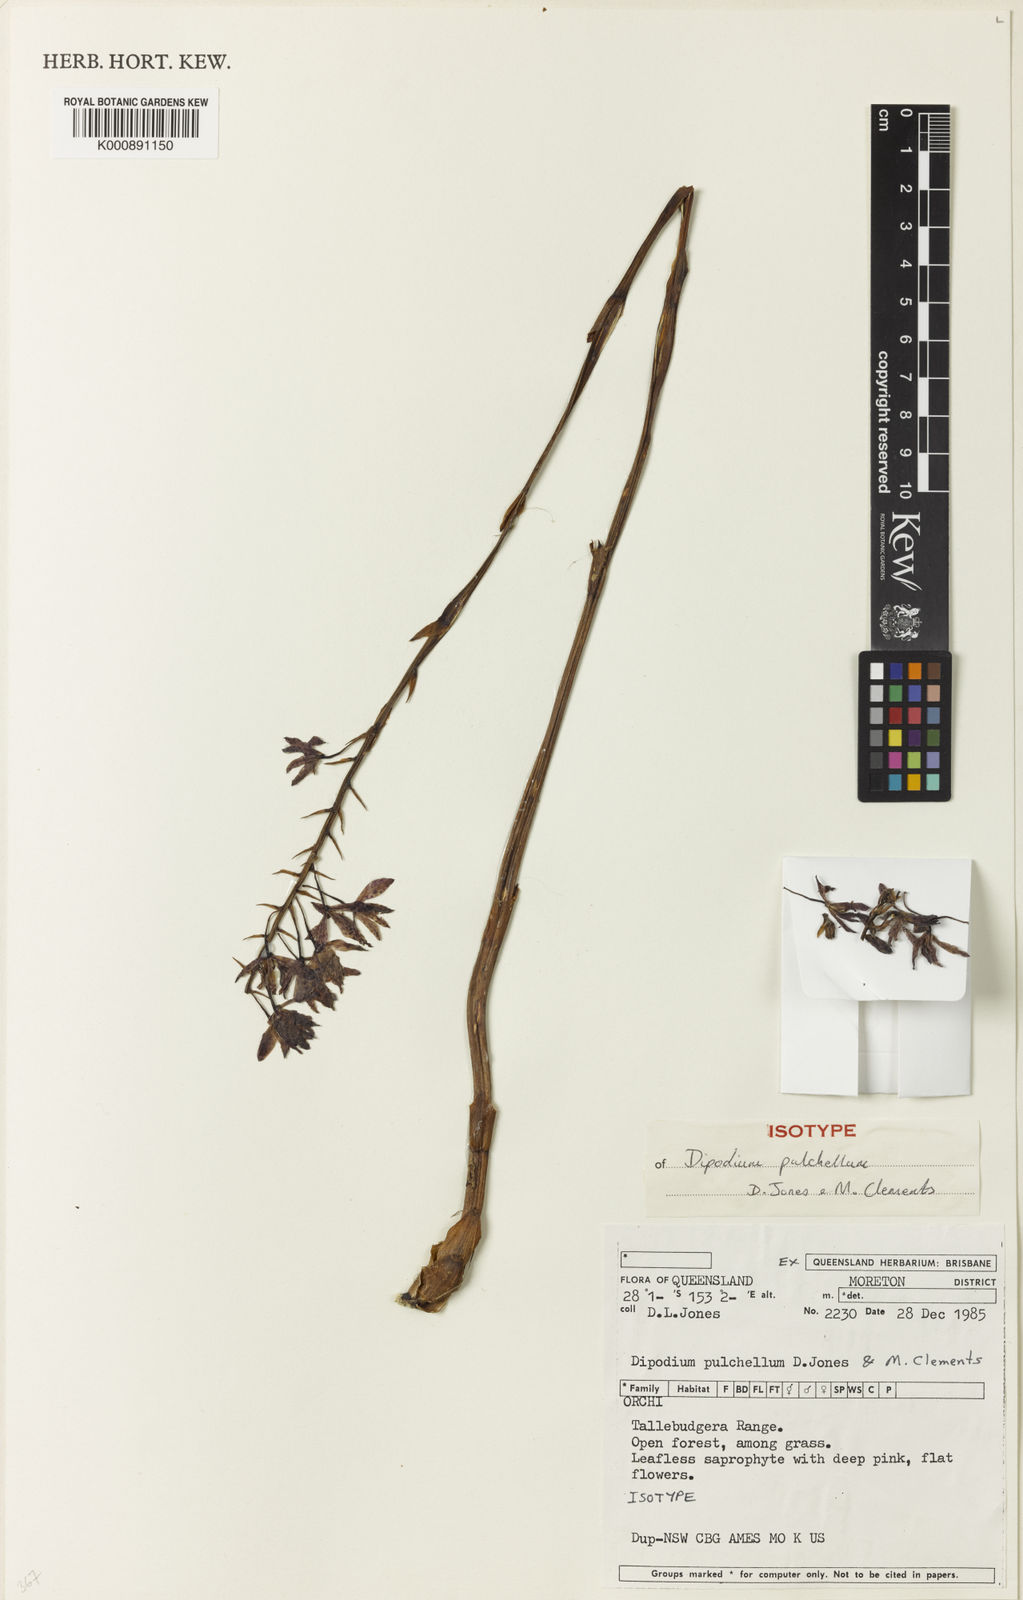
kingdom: Plantae
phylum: Tracheophyta
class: Liliopsida
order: Asparagales
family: Orchidaceae
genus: Dipodium
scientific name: Dipodium pulchellum
